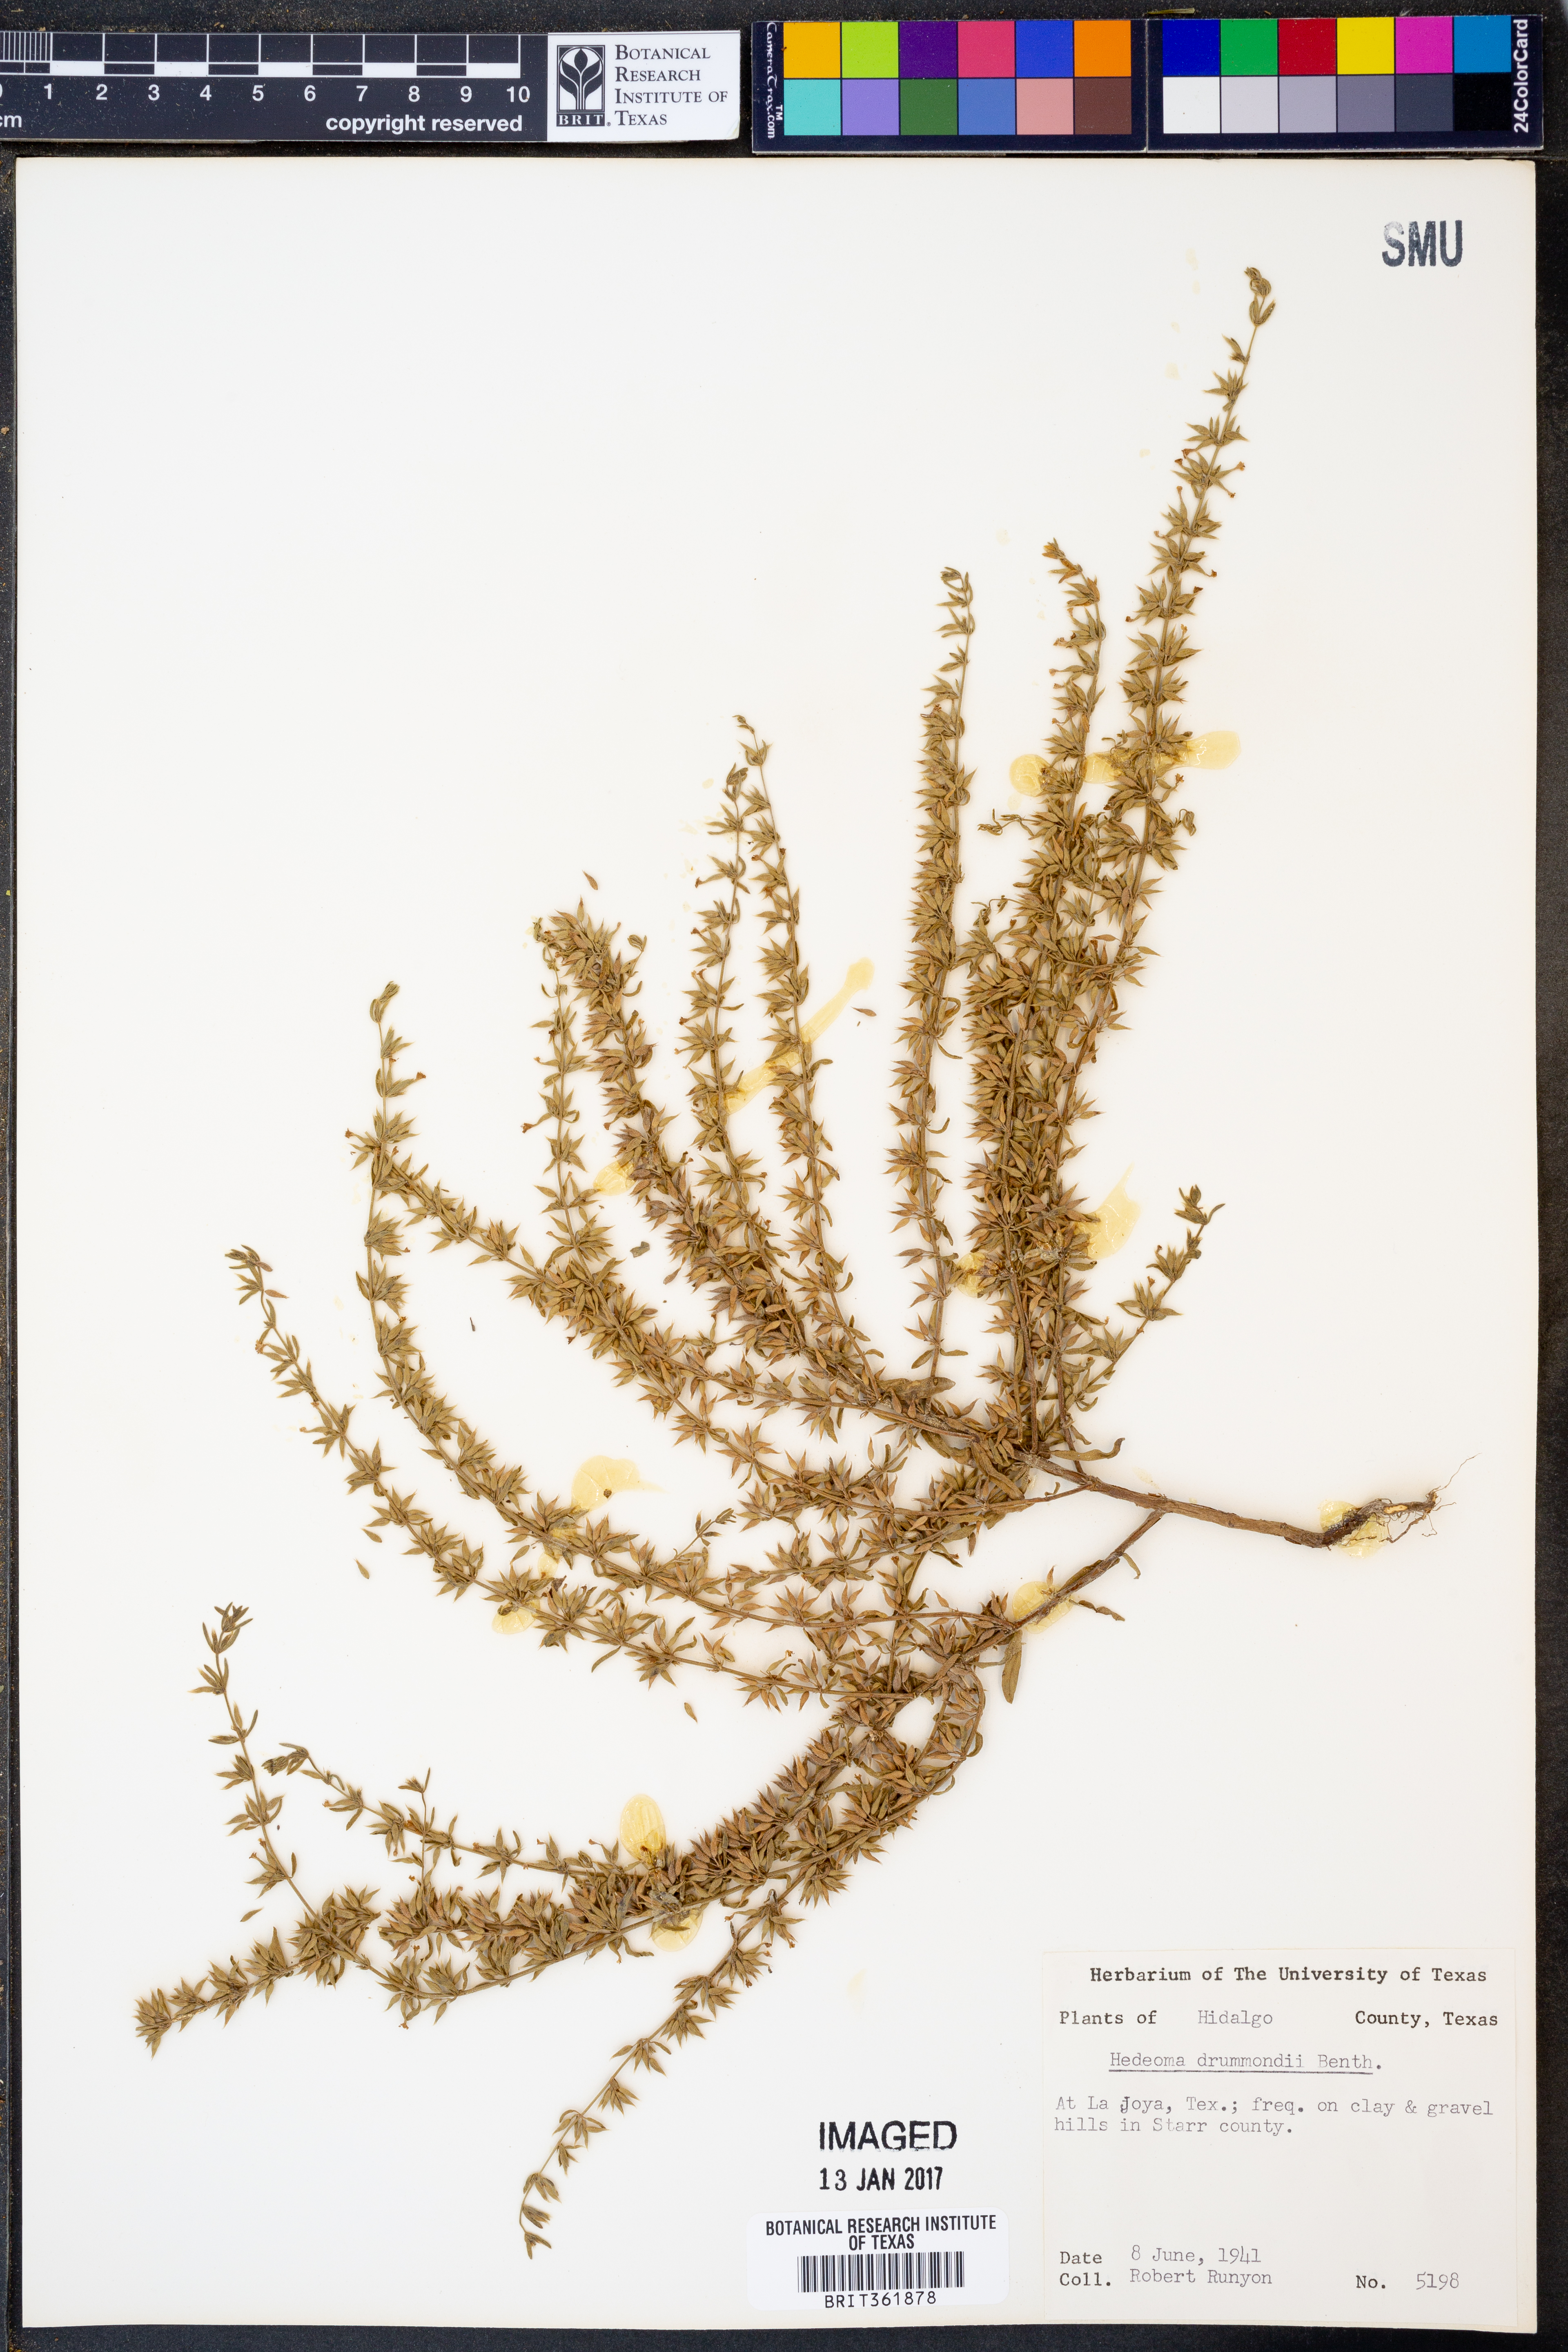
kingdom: Plantae
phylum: Tracheophyta
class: Magnoliopsida
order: Lamiales
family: Lamiaceae
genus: Hedeoma
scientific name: Hedeoma drummondii
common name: New mexico pennyroyal
